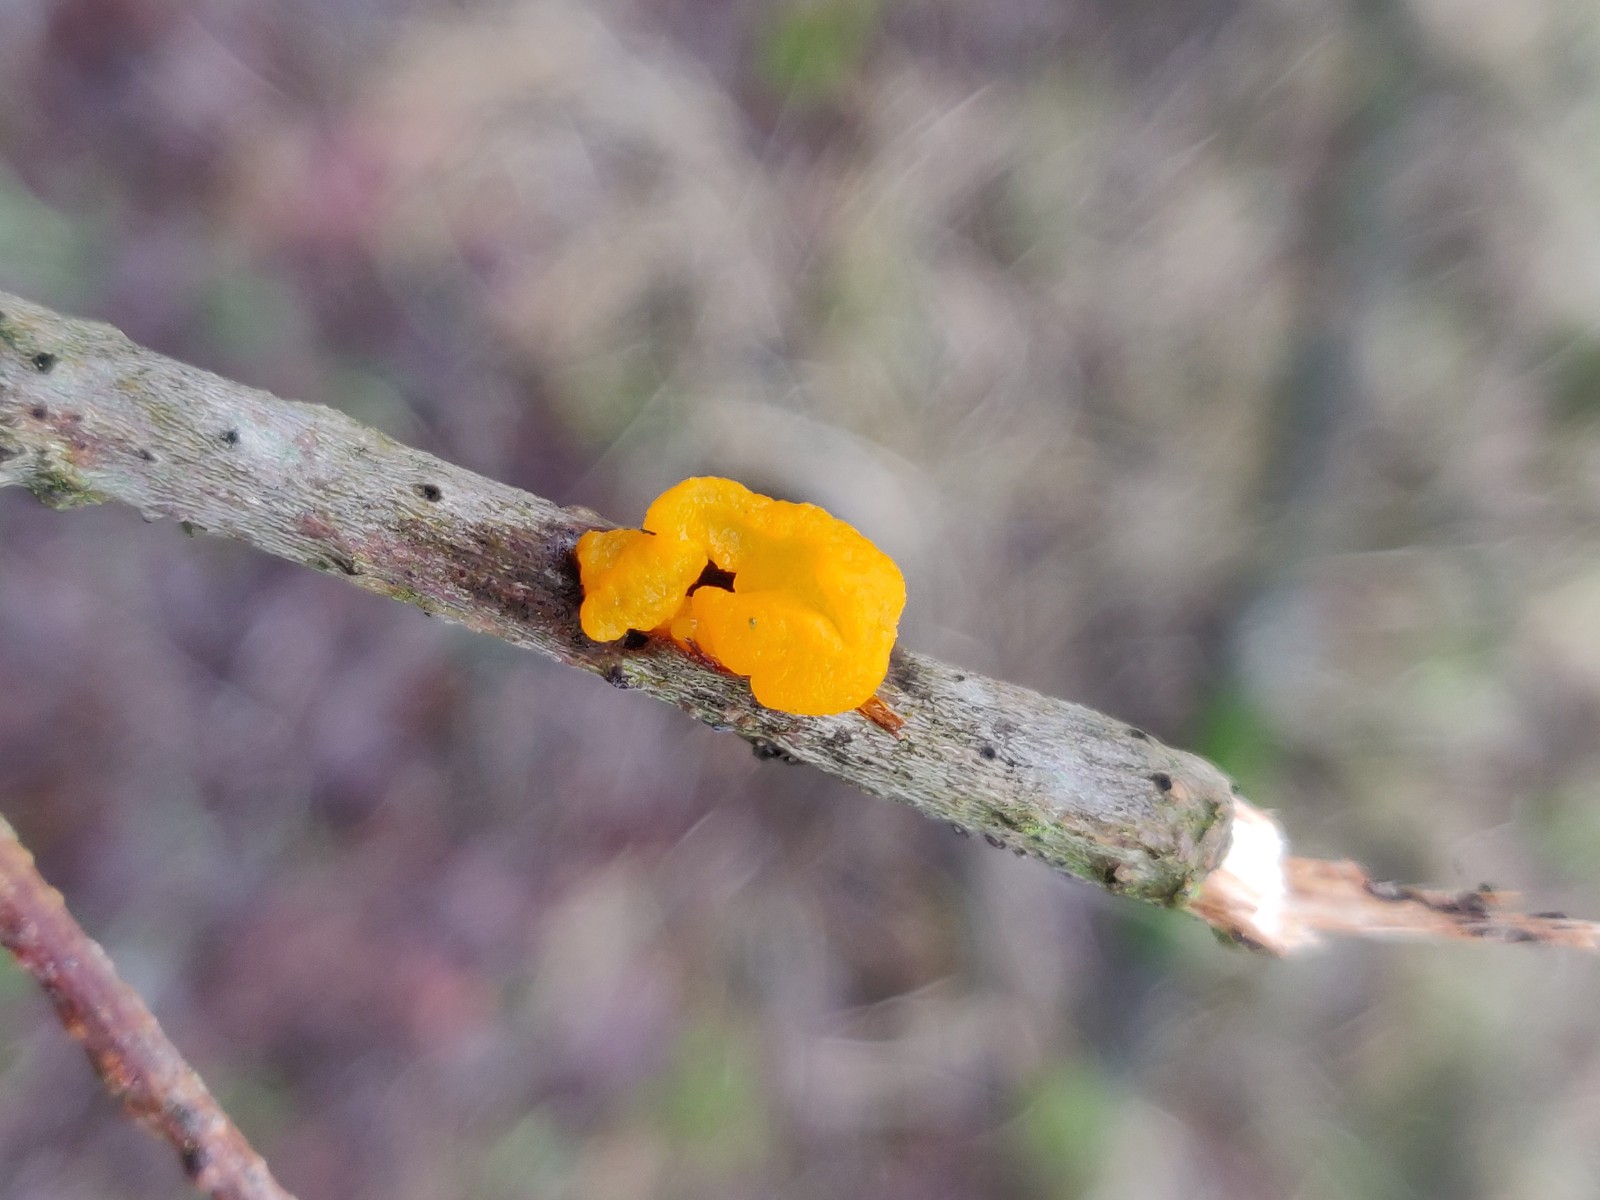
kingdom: Fungi
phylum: Basidiomycota
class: Tremellomycetes
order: Tremellales
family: Tremellaceae
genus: Tremella
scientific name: Tremella mesenterica
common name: gul bævresvamp
